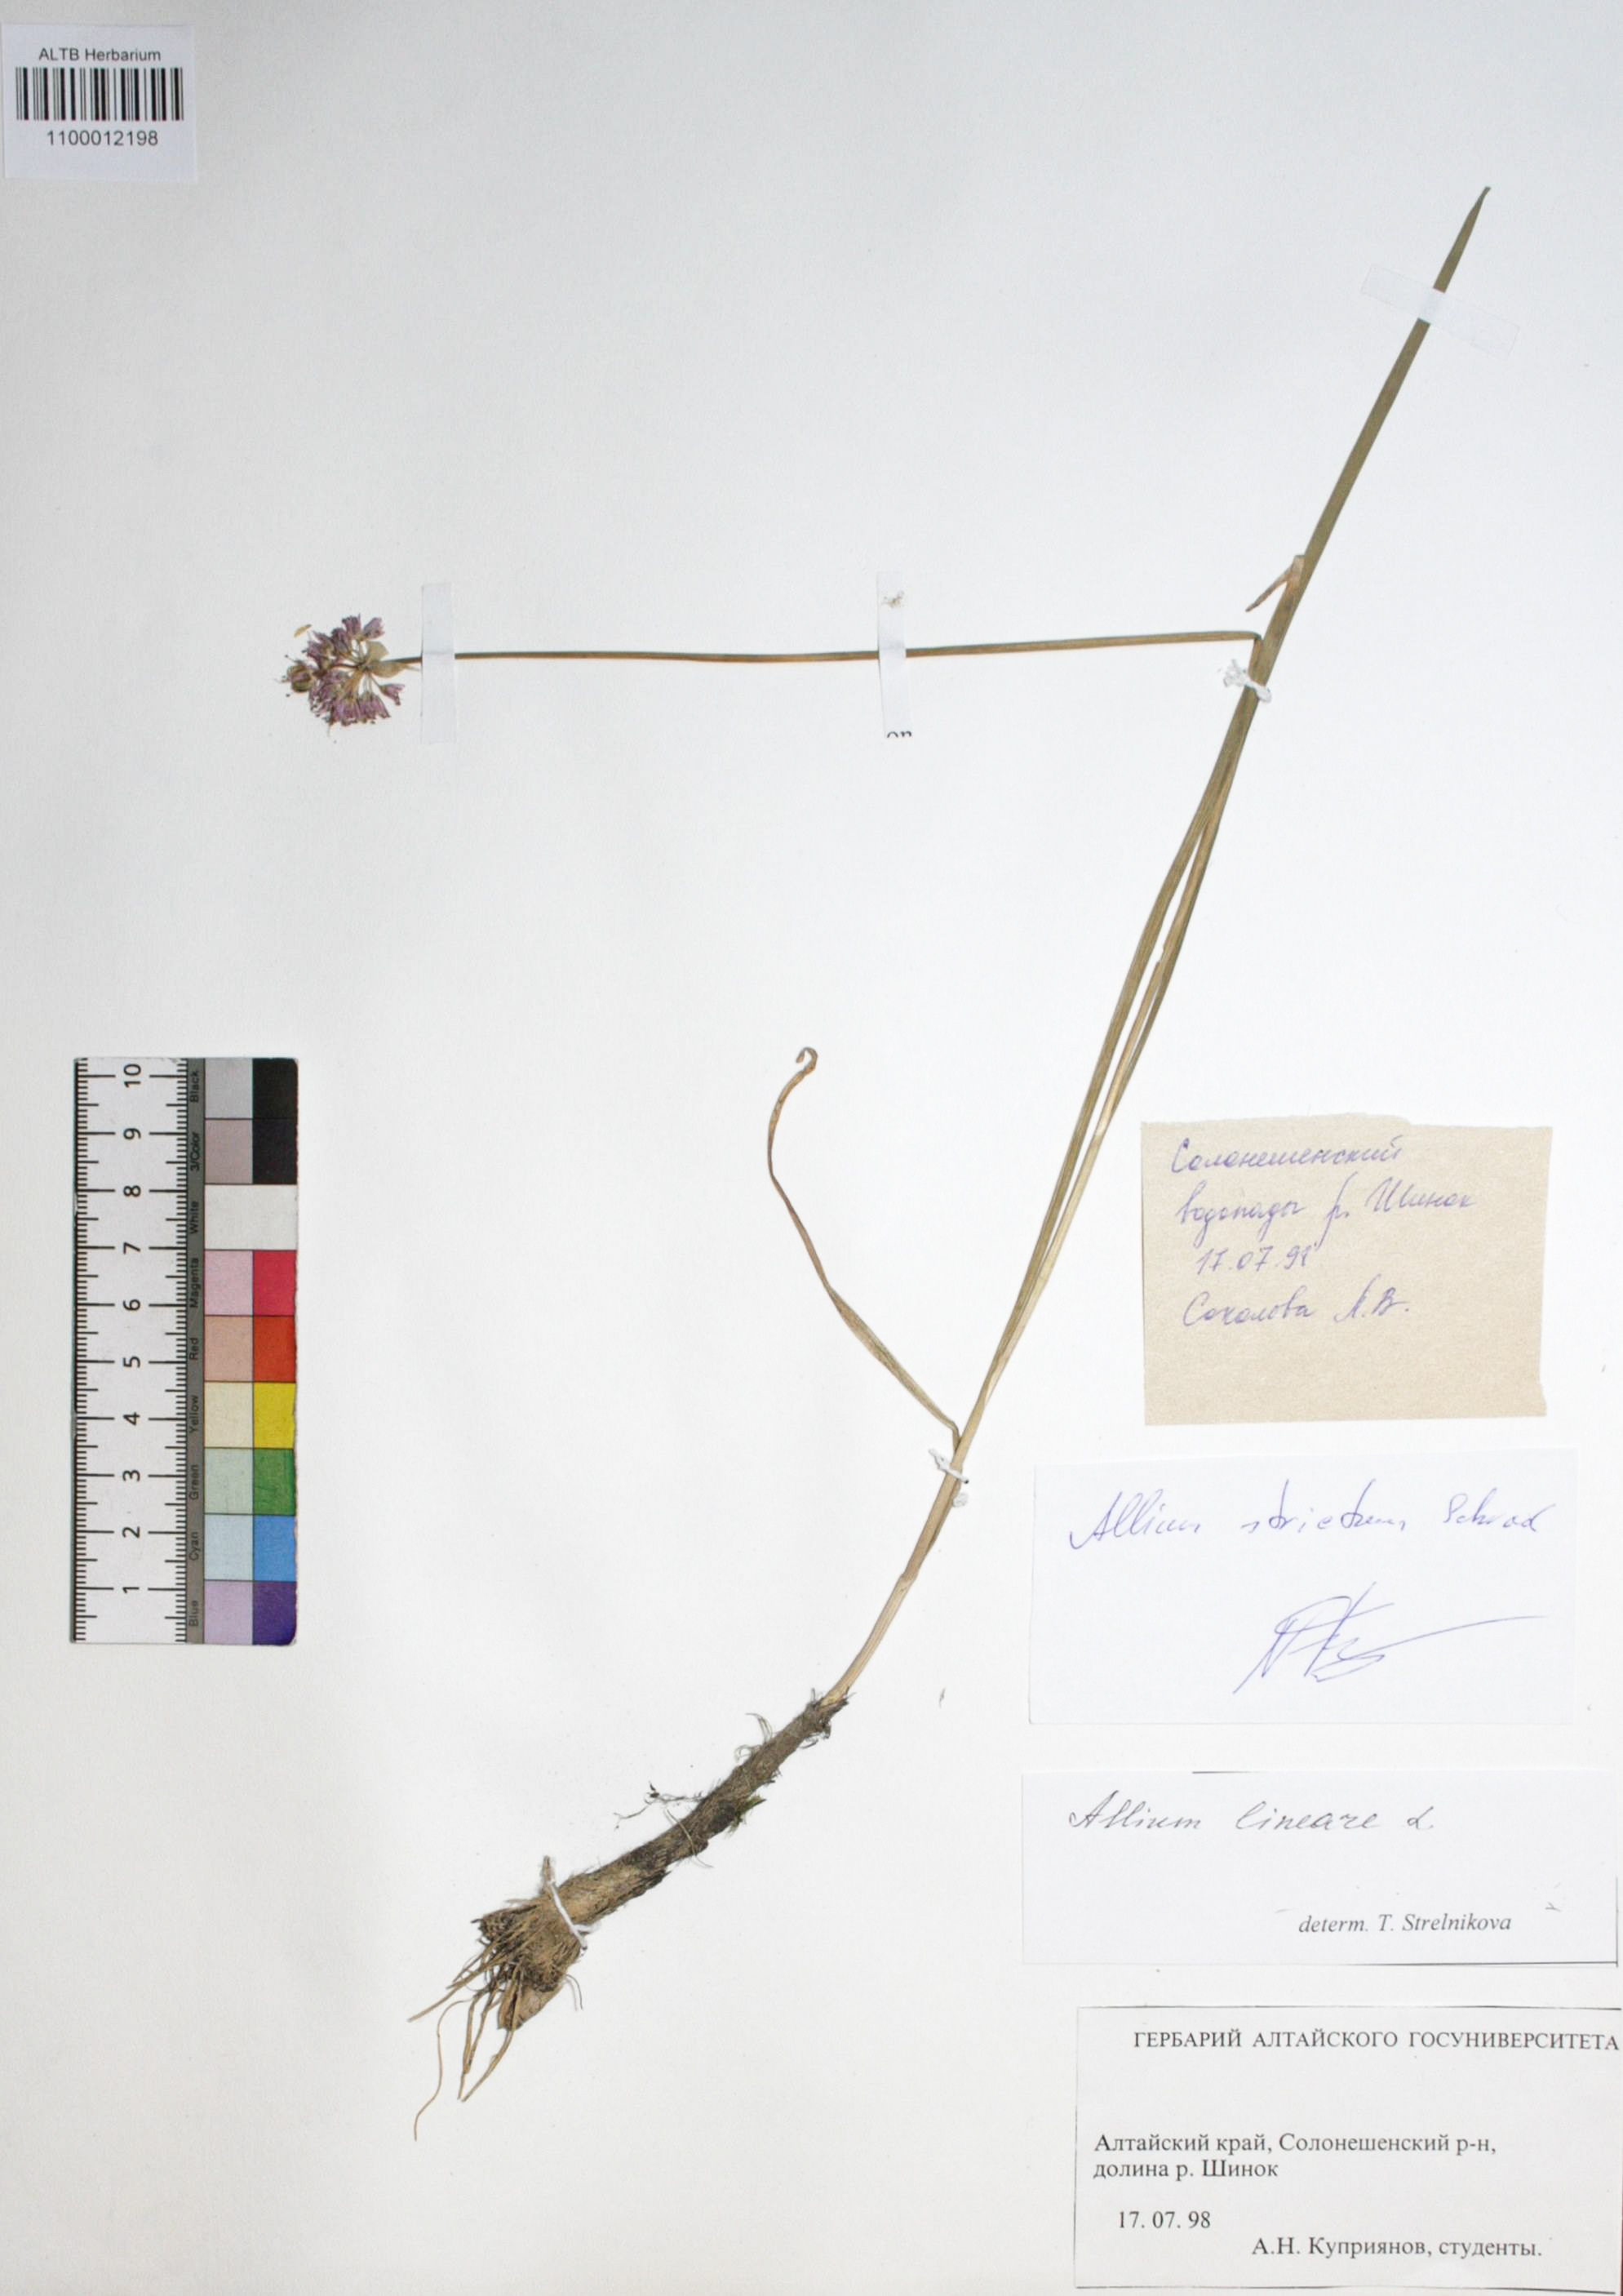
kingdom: Plantae
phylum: Tracheophyta
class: Liliopsida
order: Asparagales
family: Amaryllidaceae
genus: Allium
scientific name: Allium lineare
